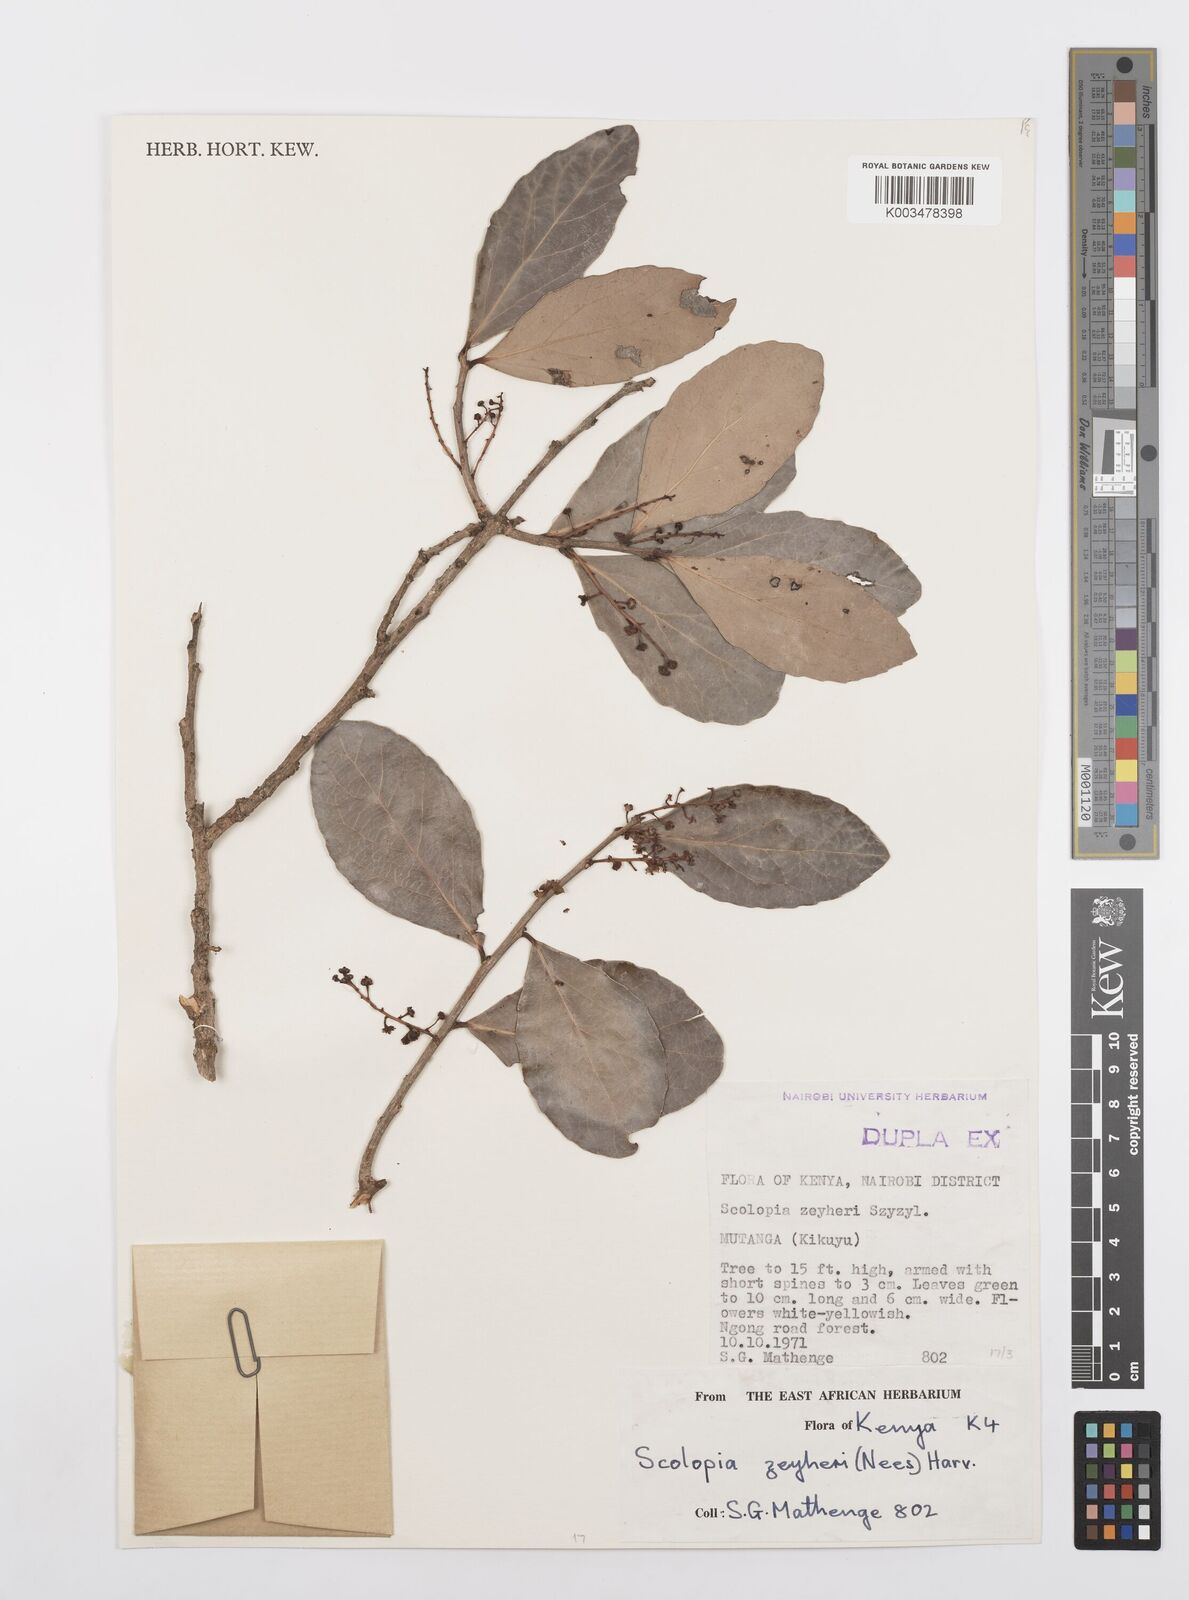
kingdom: Plantae
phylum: Tracheophyta
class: Magnoliopsida
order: Malpighiales
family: Salicaceae
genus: Scolopia
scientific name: Scolopia zeyheri
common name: Thorn pear
